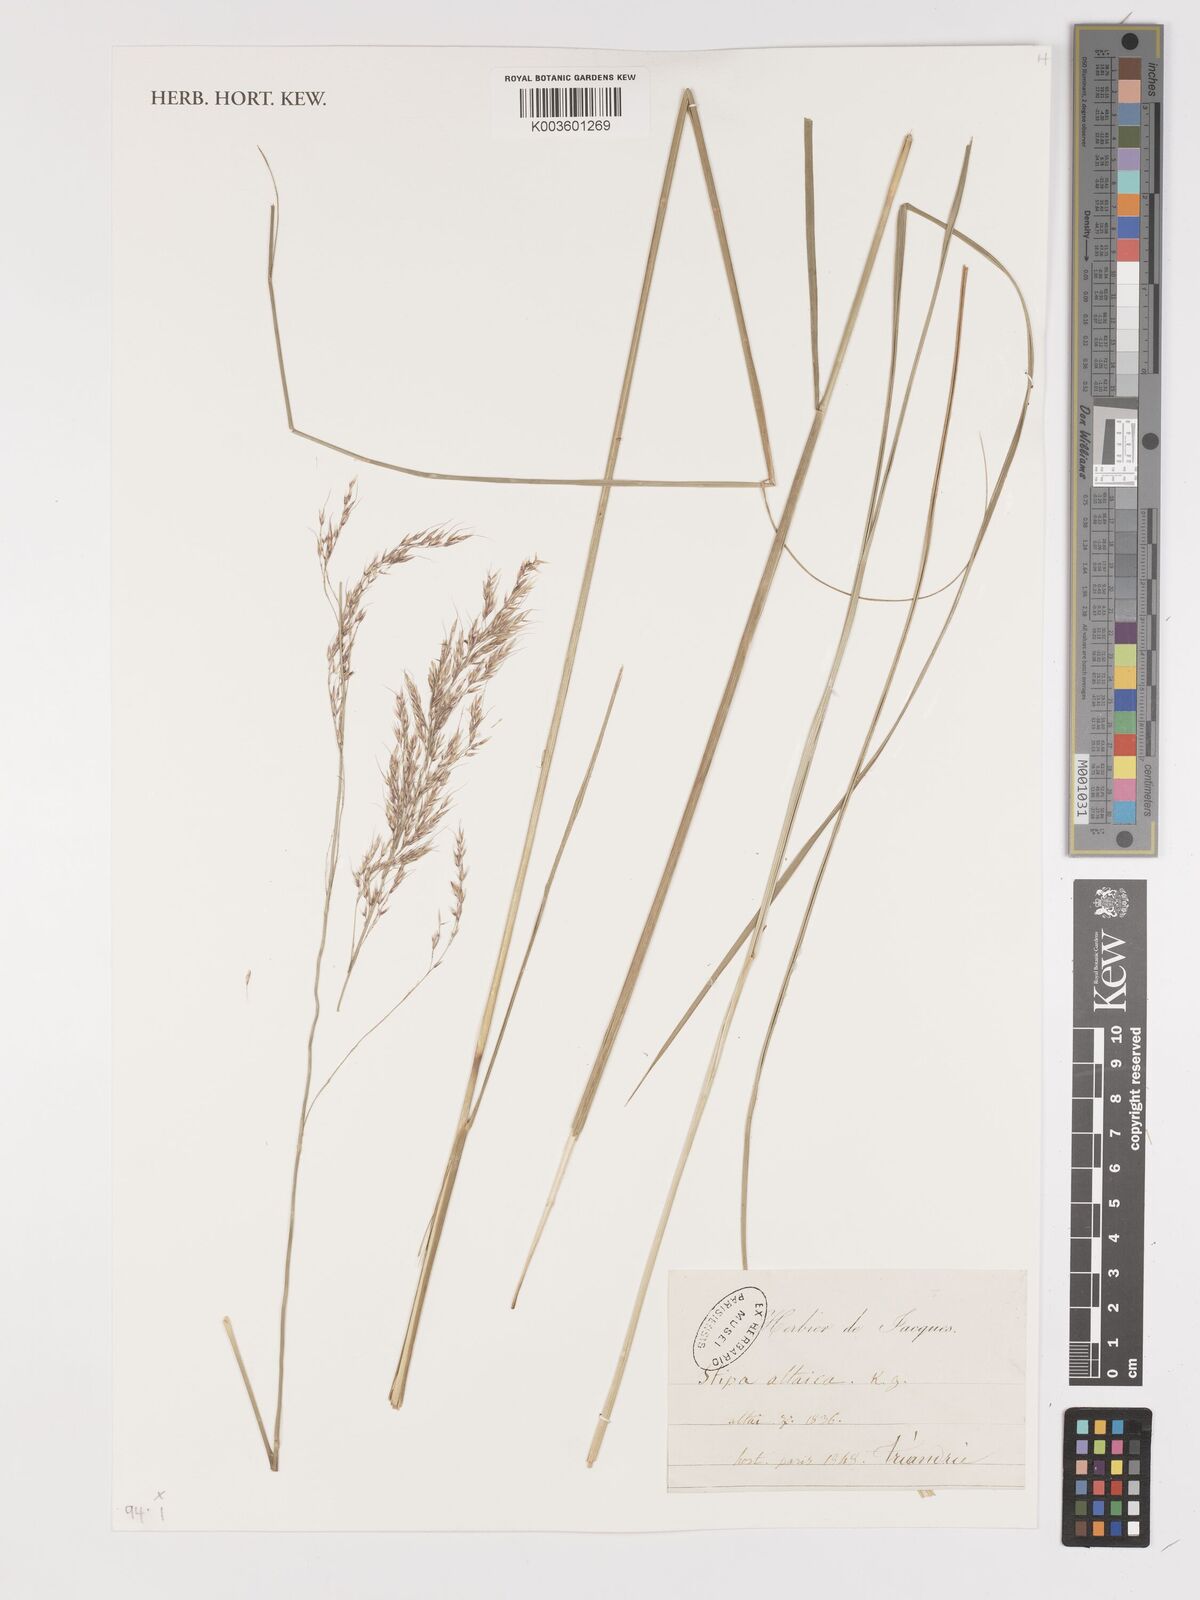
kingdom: Plantae
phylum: Tracheophyta
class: Liliopsida
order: Poales
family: Poaceae
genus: Neotrinia
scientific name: Neotrinia splendens
